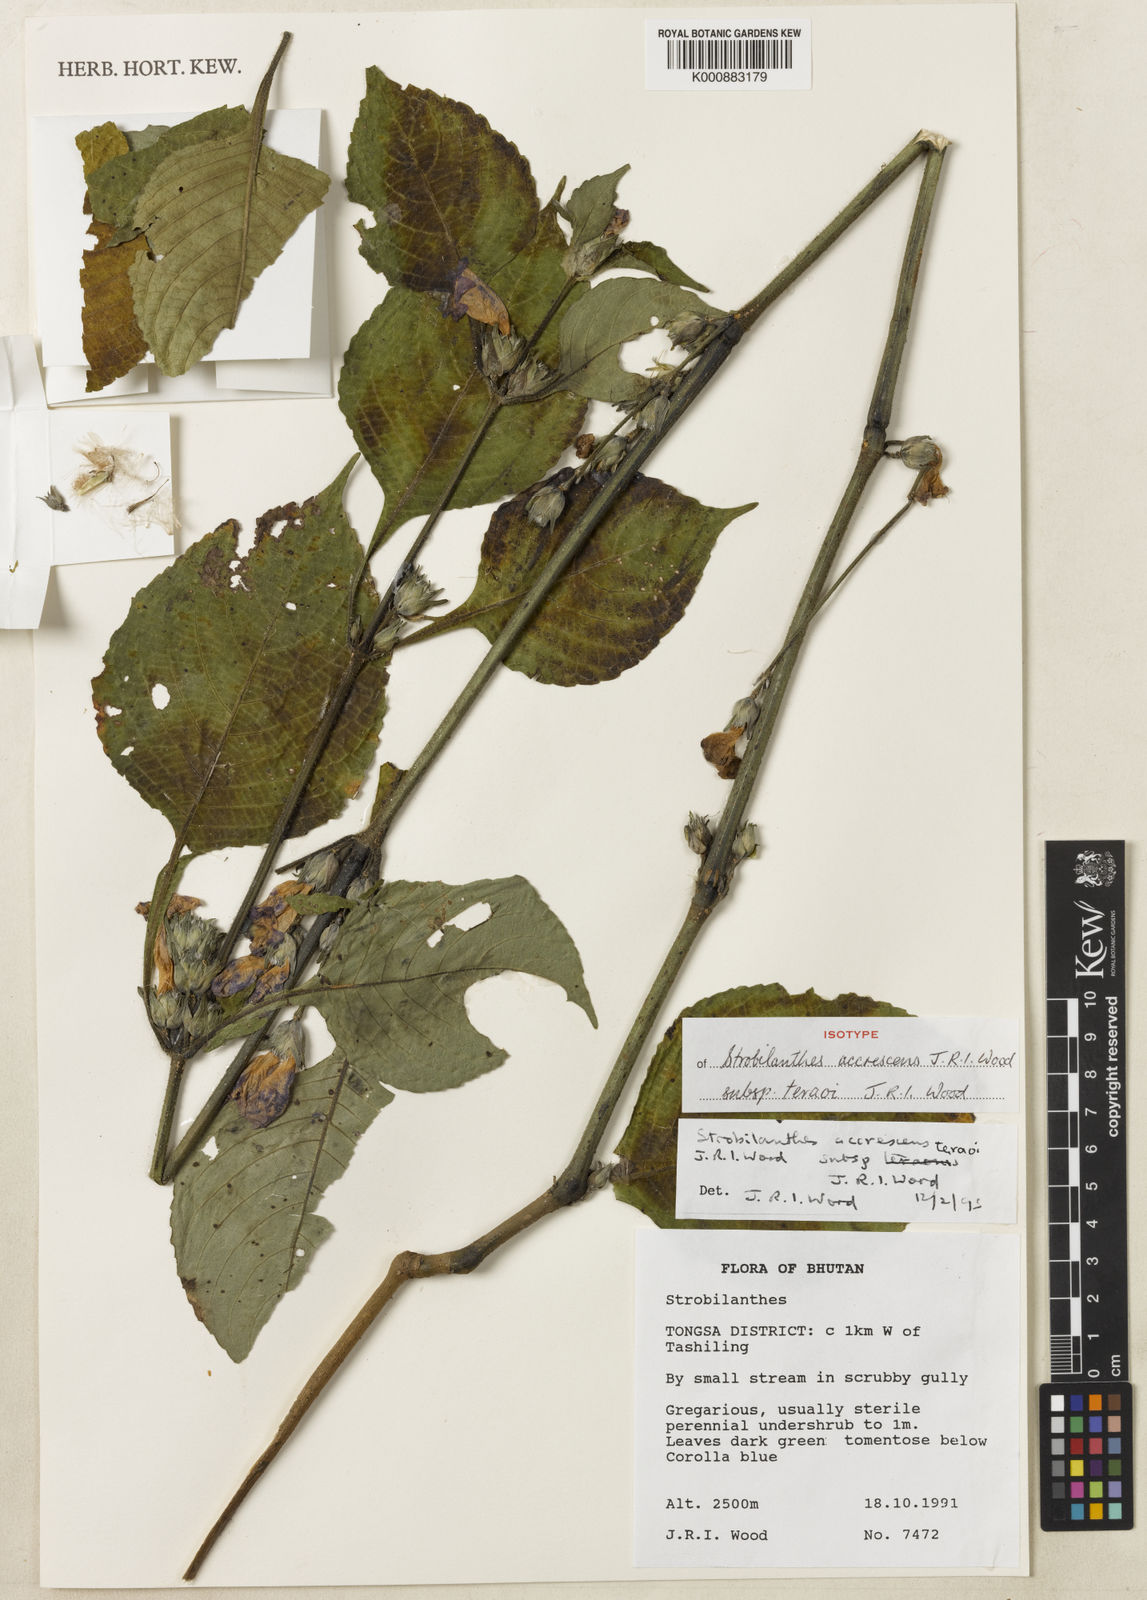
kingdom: Plantae
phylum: Tracheophyta
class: Magnoliopsida
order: Lamiales
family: Acanthaceae
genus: Strobilanthes
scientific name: Strobilanthes
